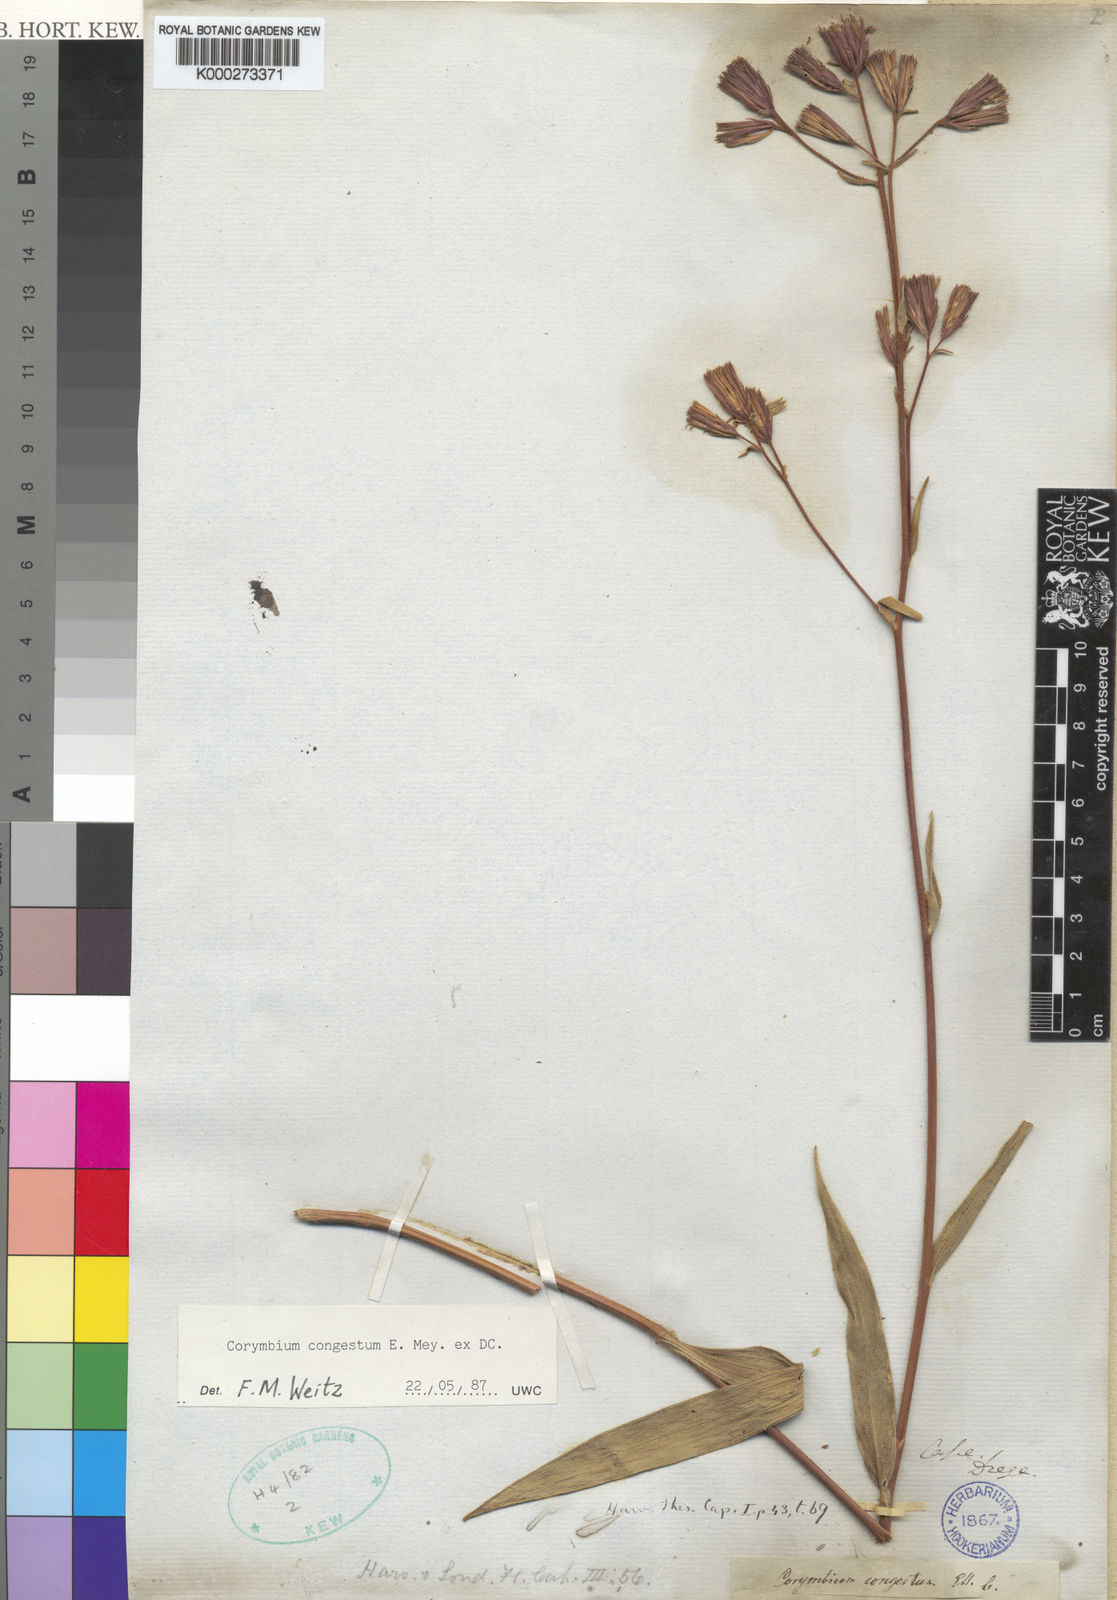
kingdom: Plantae
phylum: Tracheophyta
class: Magnoliopsida
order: Asterales
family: Asteraceae
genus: Corymbium
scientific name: Corymbium congestum
